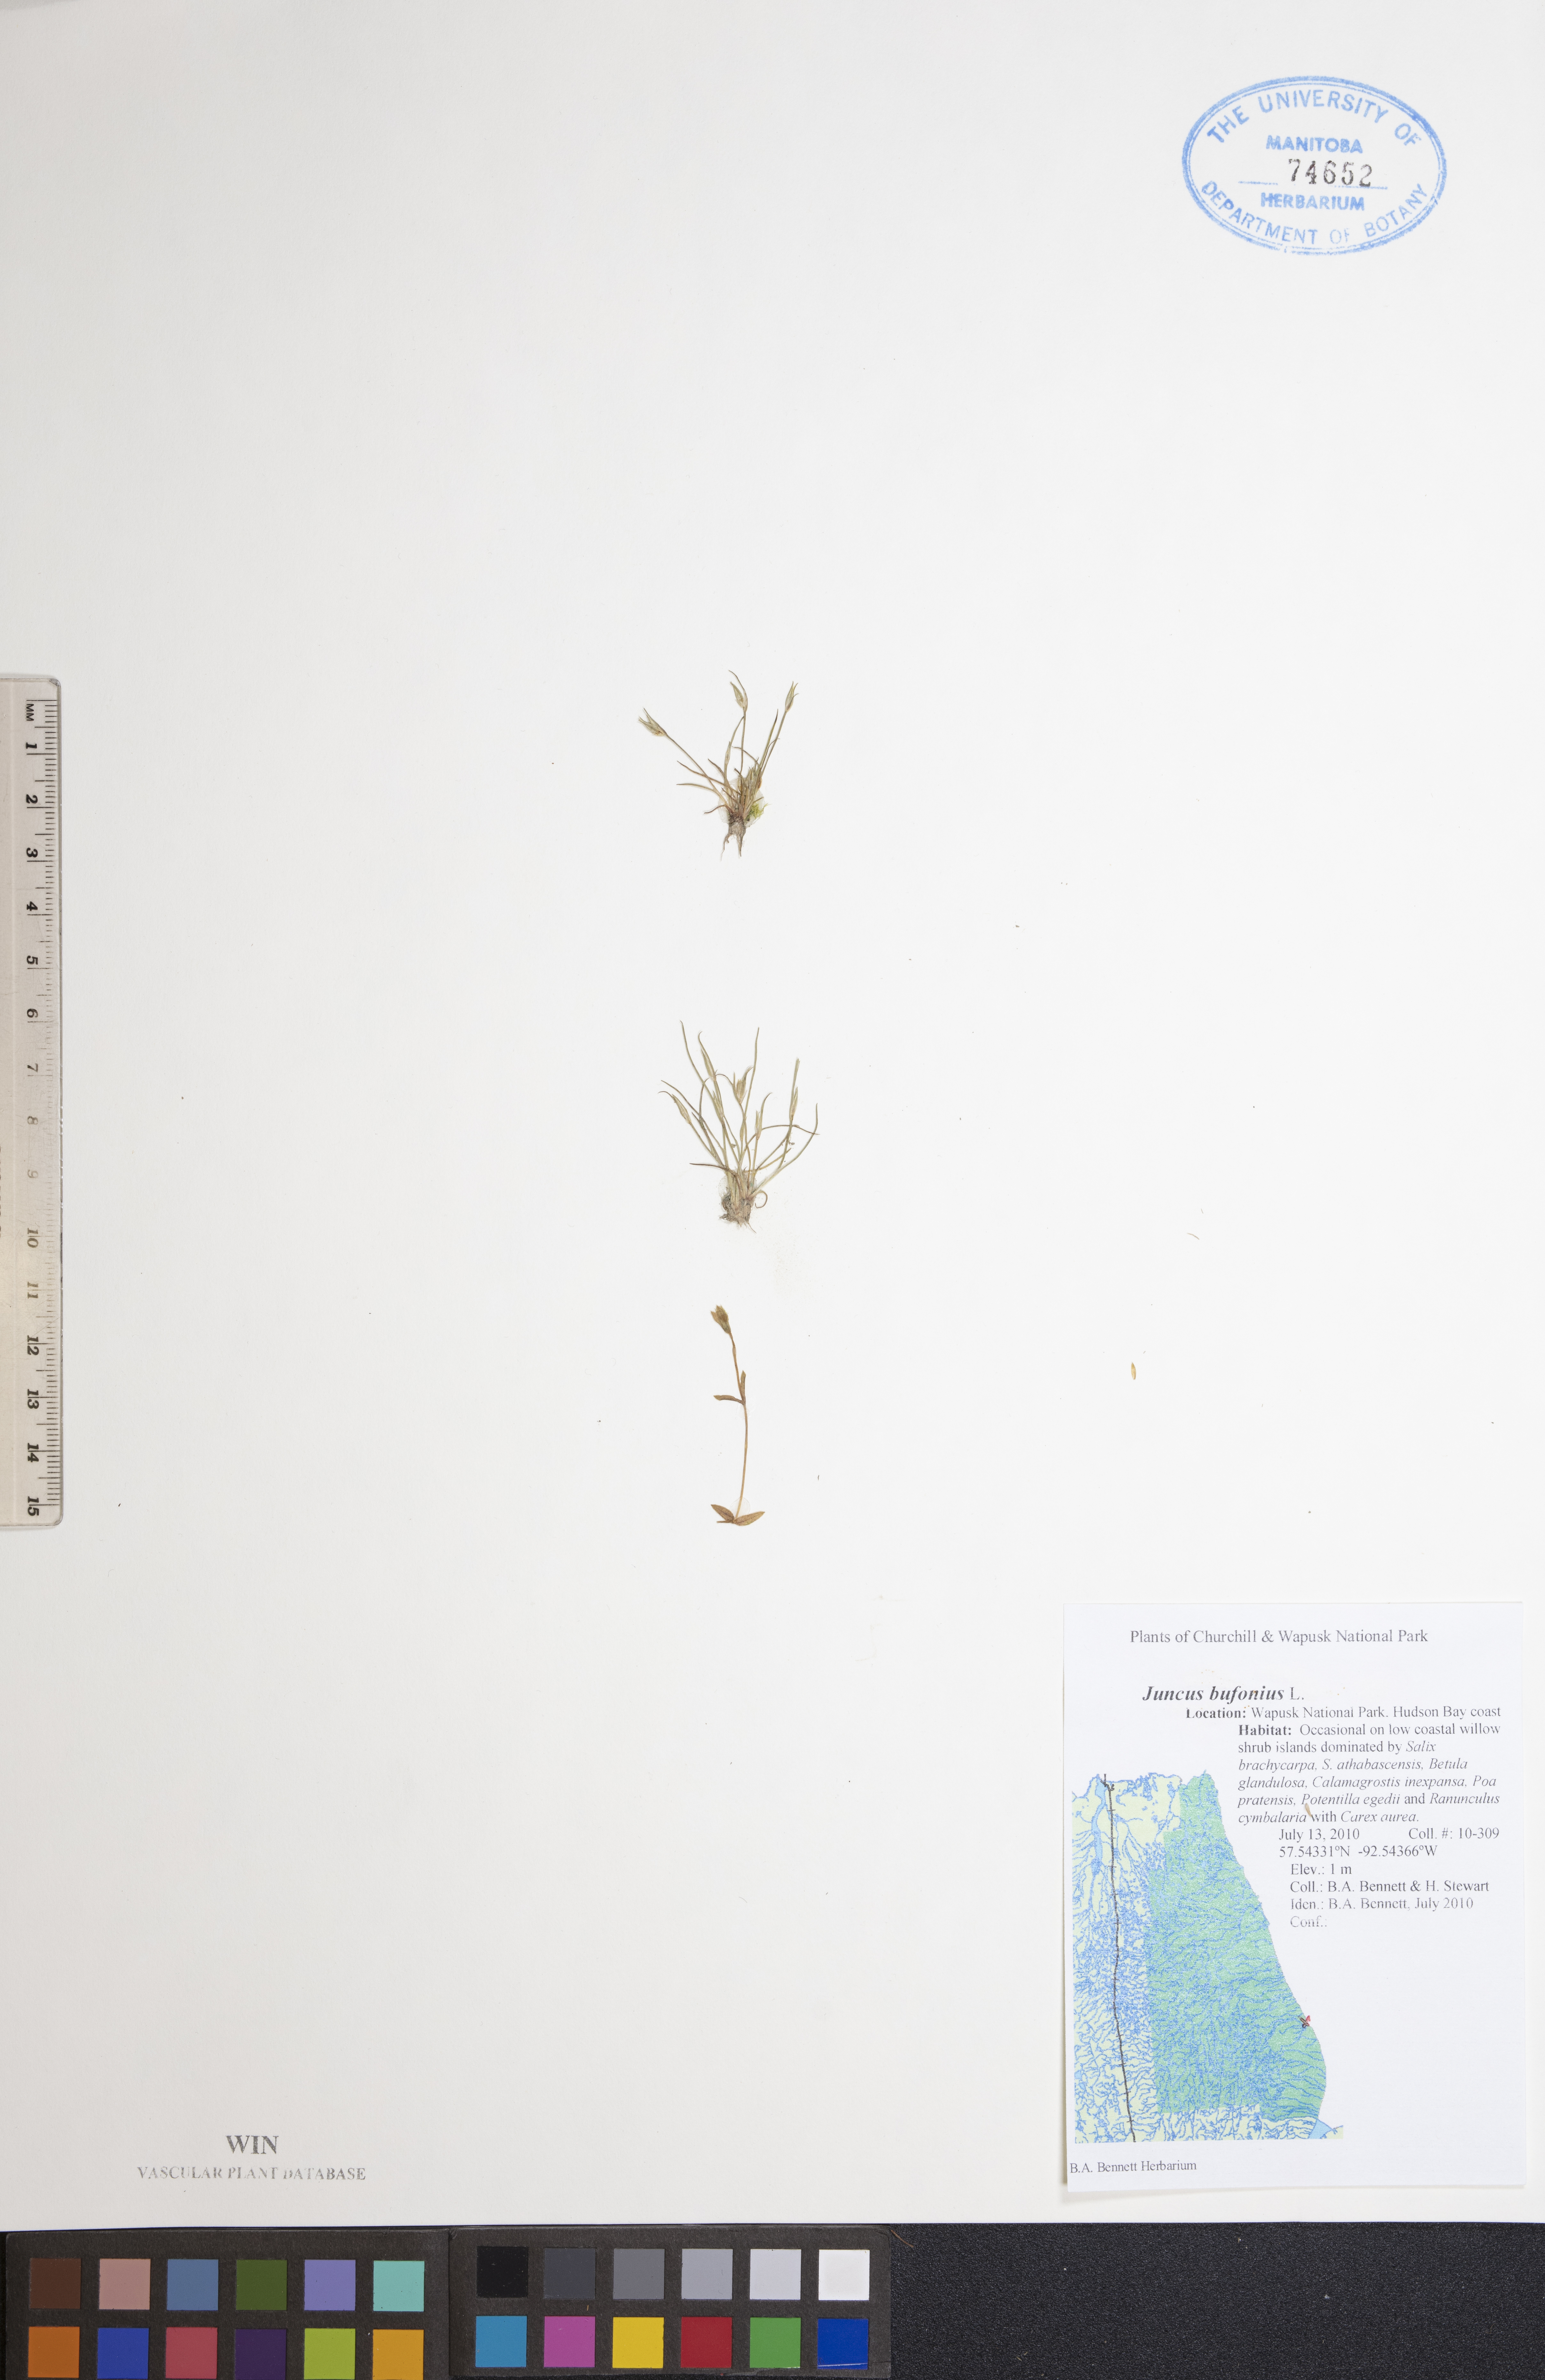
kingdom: Plantae
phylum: Tracheophyta
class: Liliopsida
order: Poales
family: Juncaceae
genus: Juncus
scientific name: Juncus bufonius
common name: Toad rush
